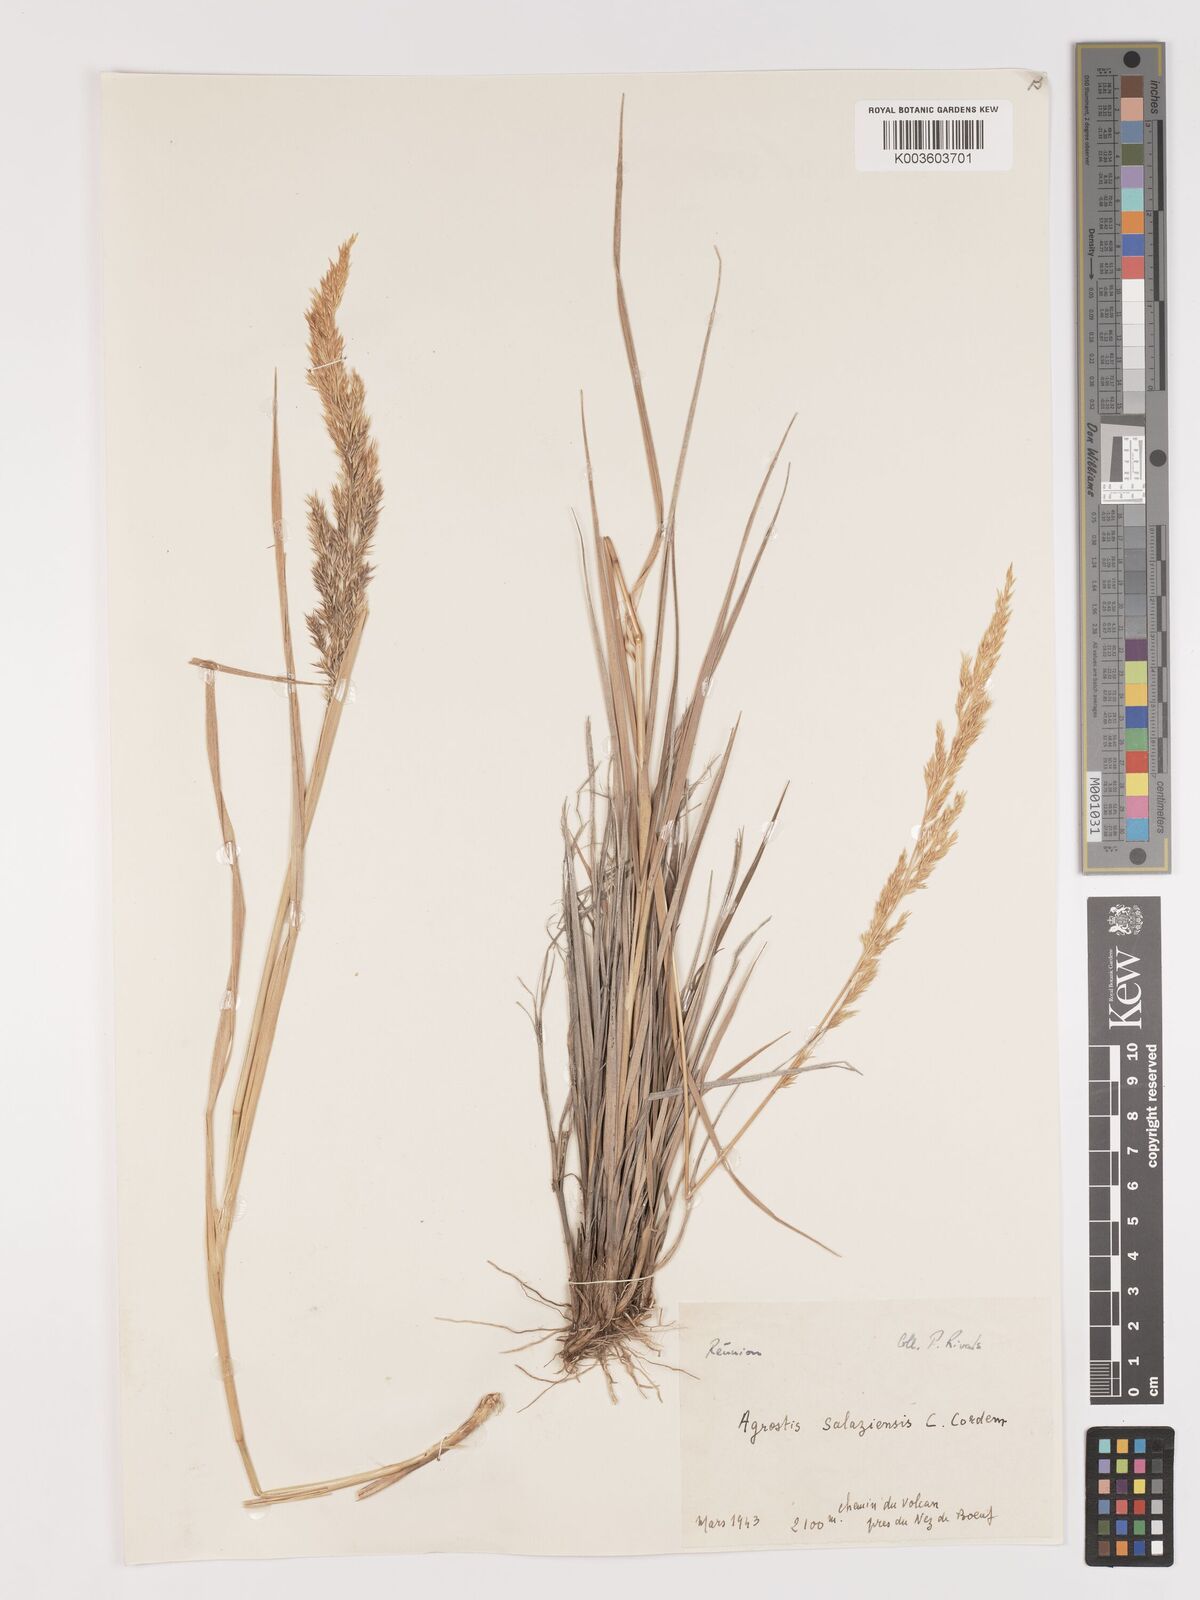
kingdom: Plantae
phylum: Tracheophyta
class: Liliopsida
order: Poales
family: Poaceae
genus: Agrostis
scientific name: Agrostis salaziensis
